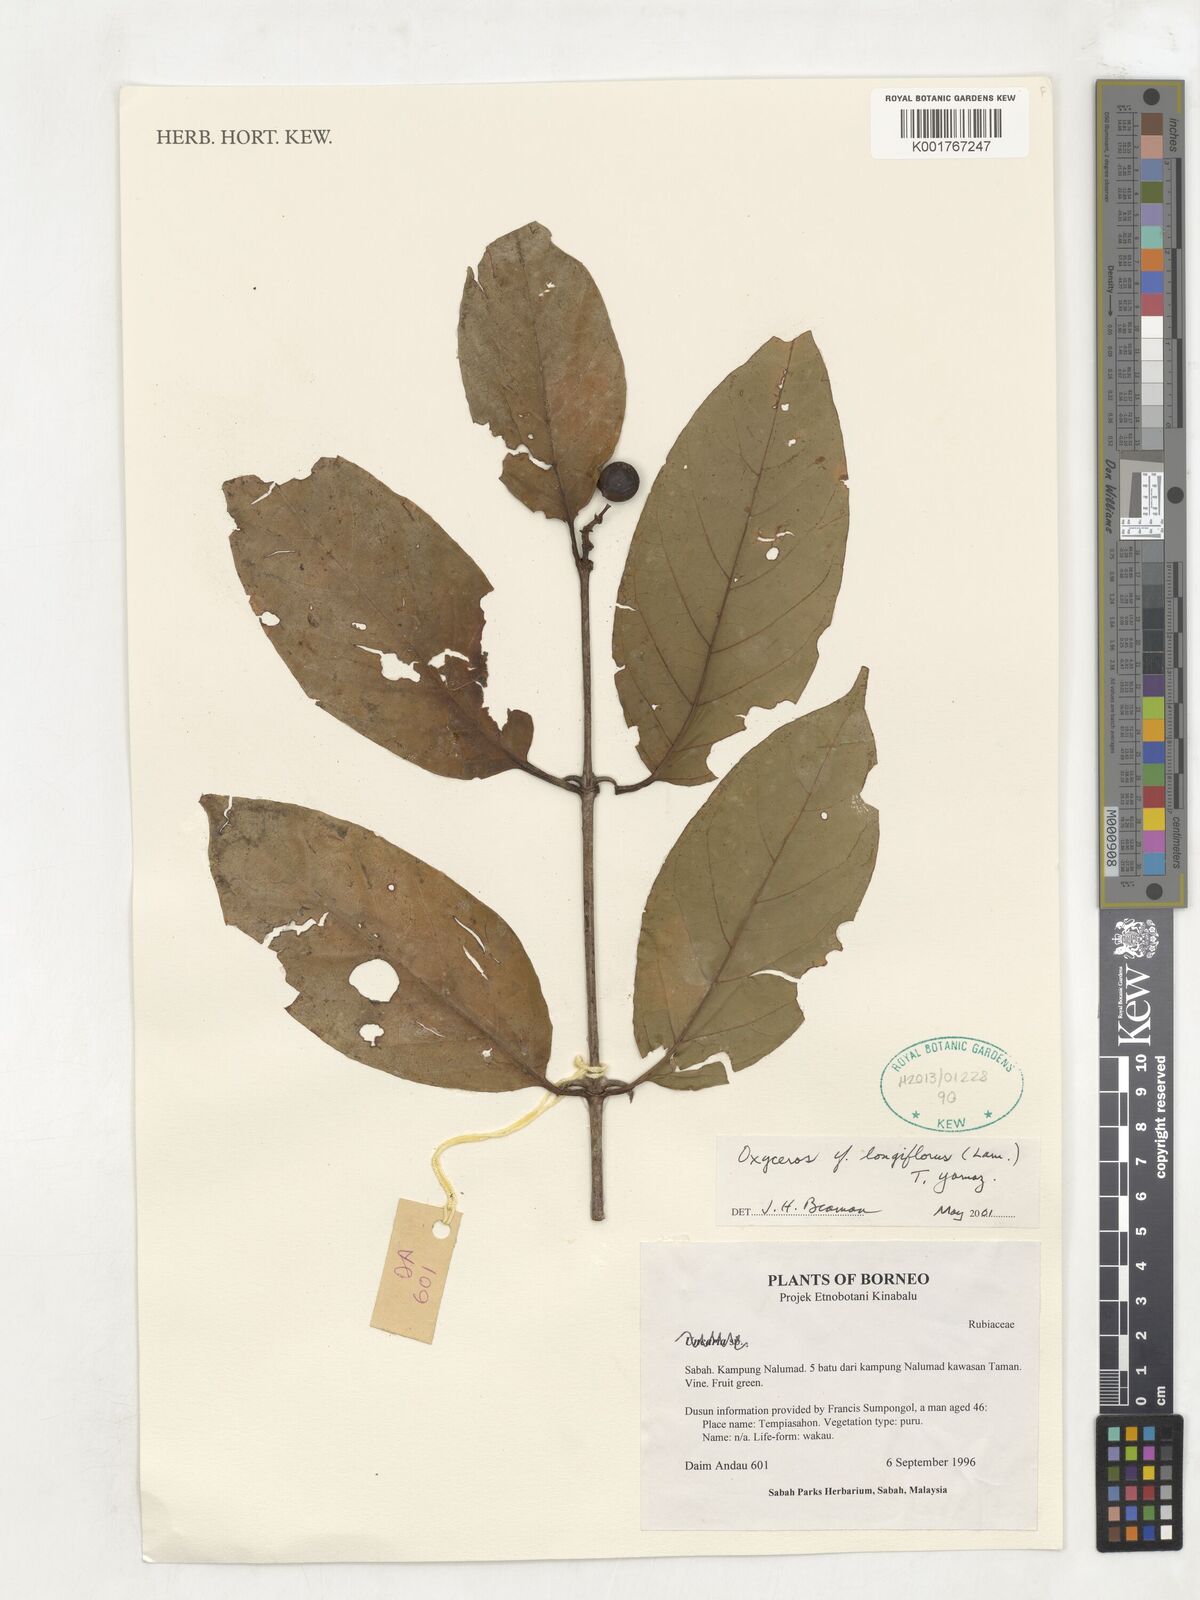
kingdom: Plantae
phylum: Tracheophyta
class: Magnoliopsida
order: Gentianales
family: Rubiaceae
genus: Oxyceros
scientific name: Oxyceros longiflorus
